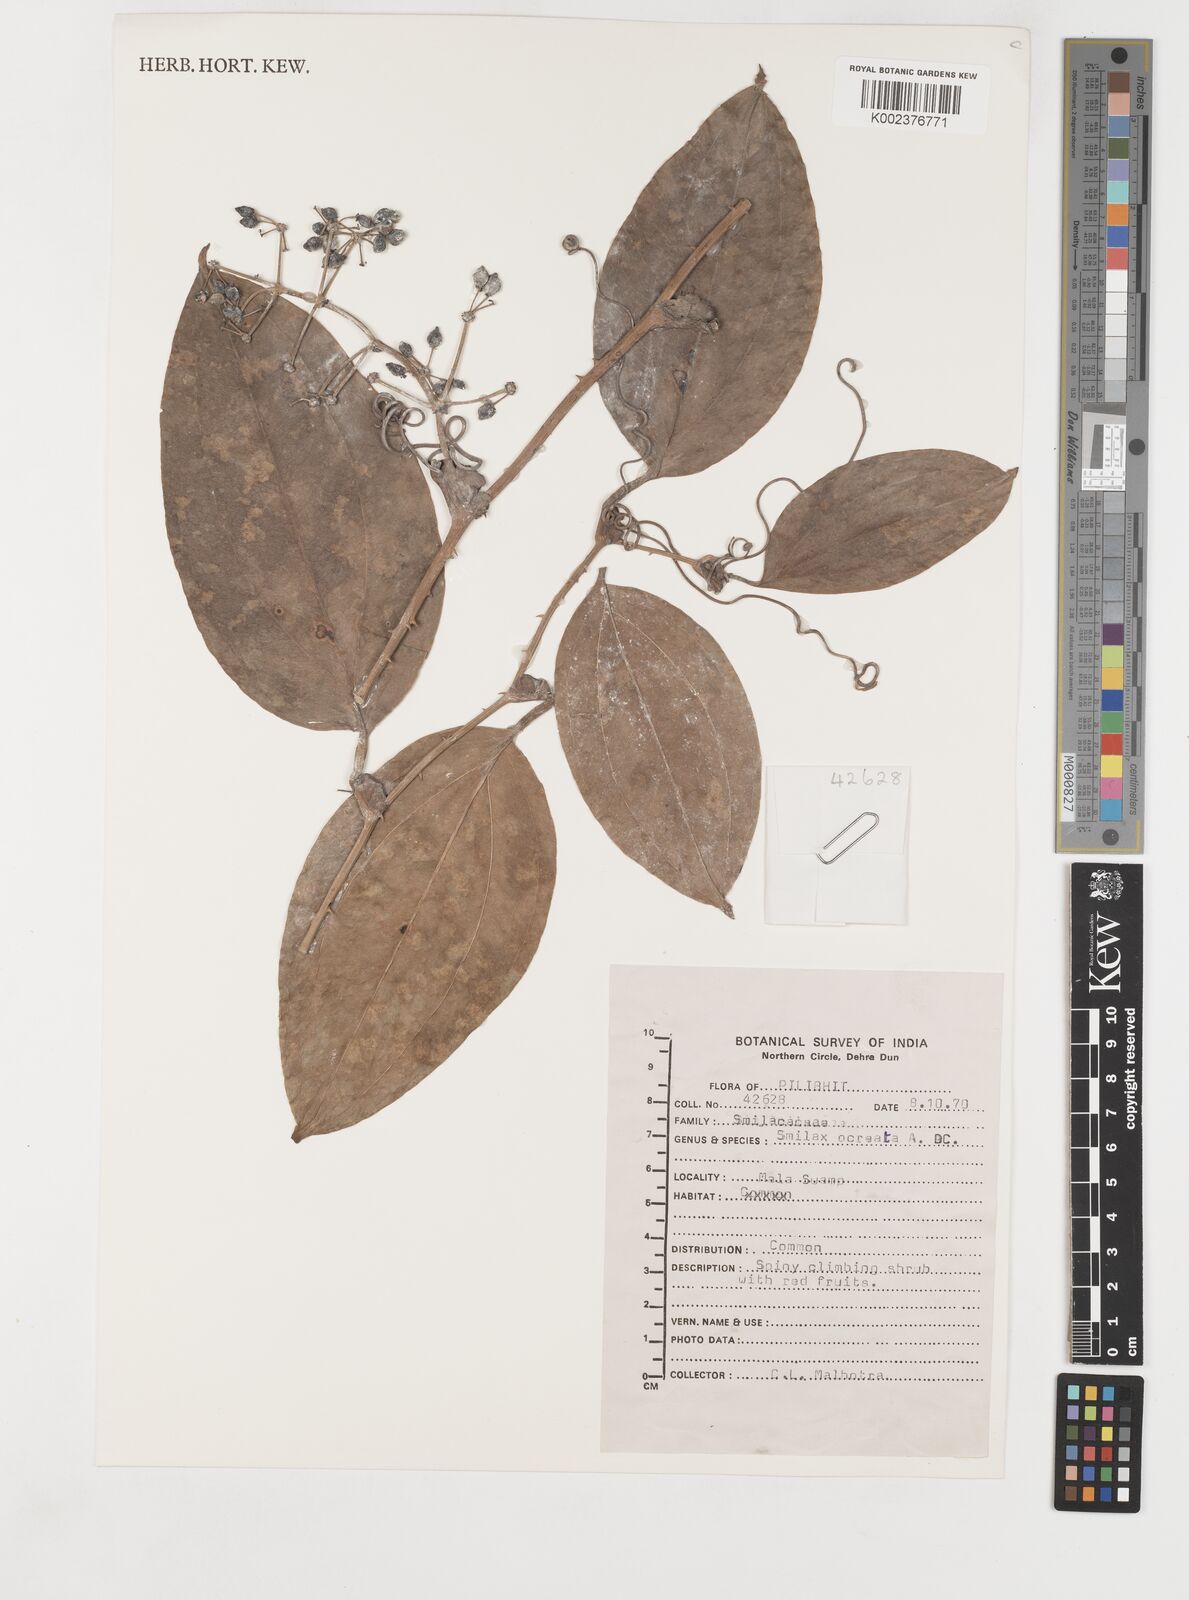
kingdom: Plantae
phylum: Tracheophyta
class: Liliopsida
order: Liliales
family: Smilacaceae
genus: Smilax
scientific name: Smilax ocreata
